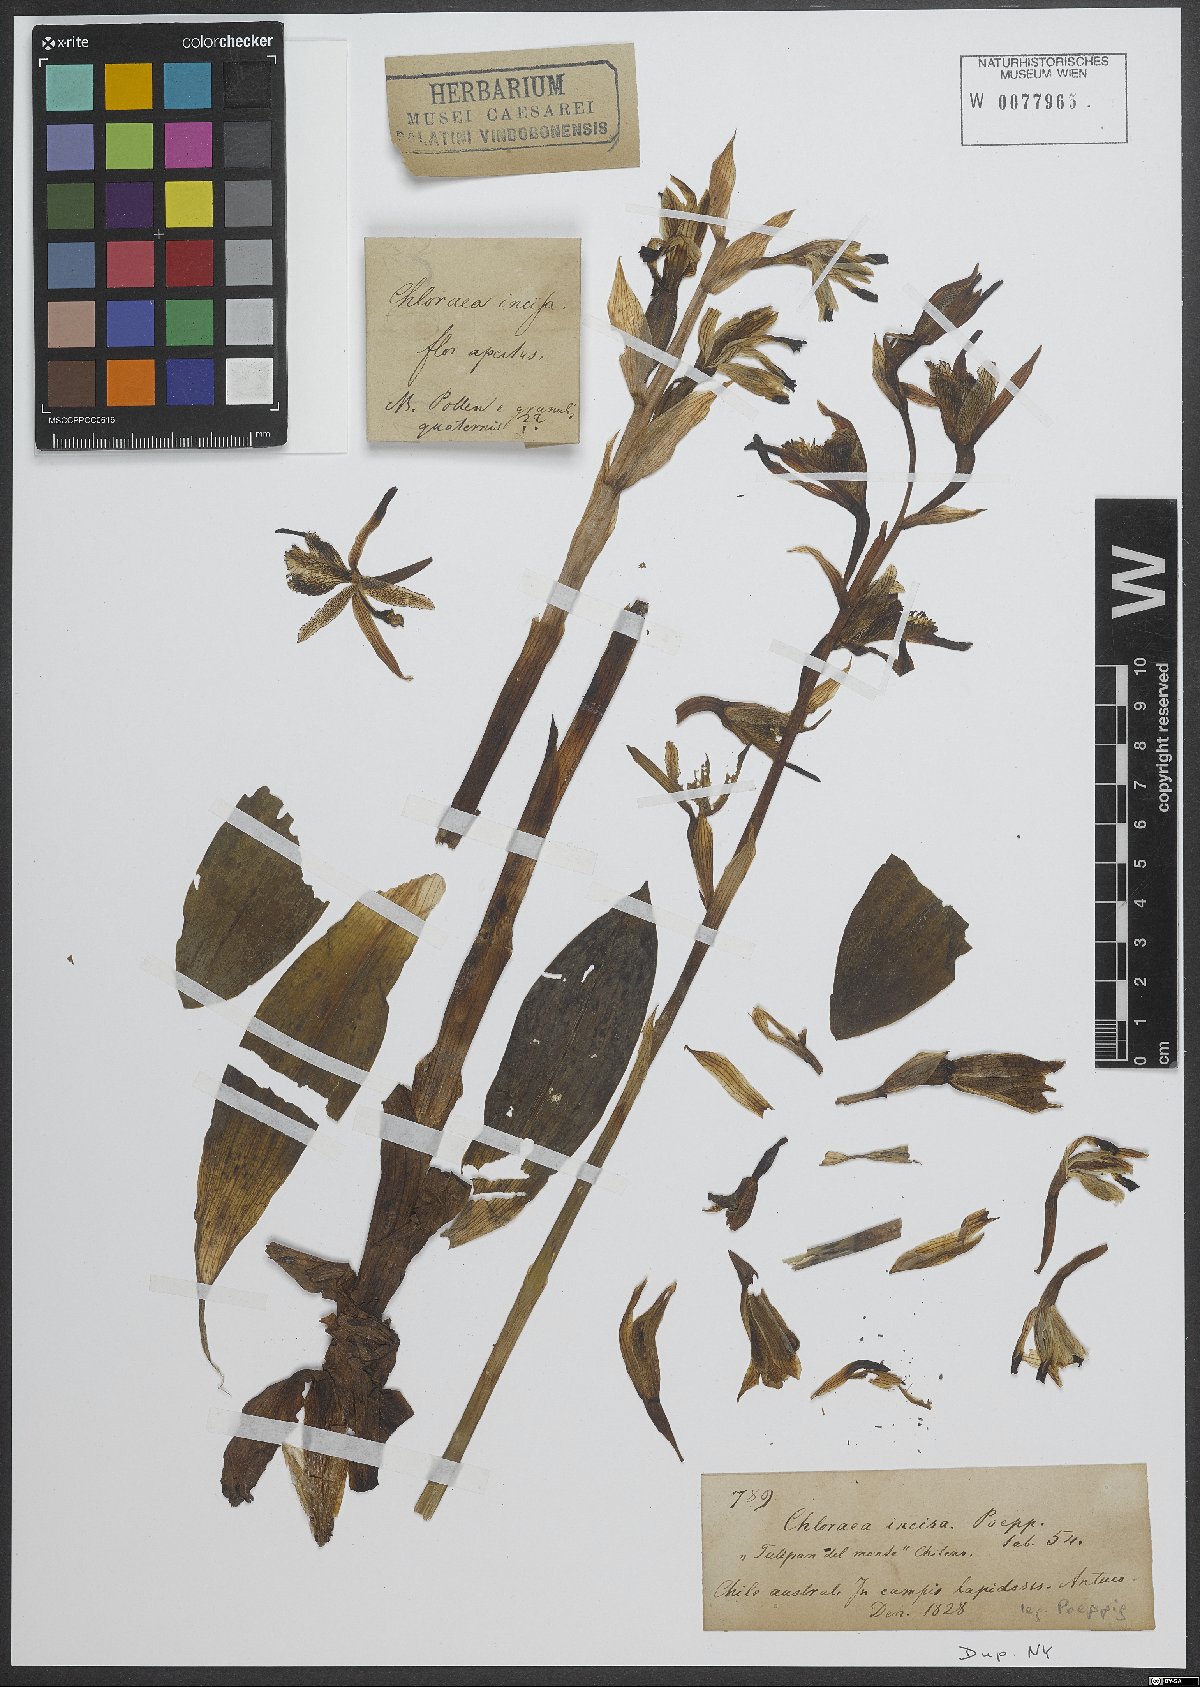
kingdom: Plantae
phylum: Tracheophyta
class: Liliopsida
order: Asparagales
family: Orchidaceae
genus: Chloraea
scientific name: Chloraea piquichen
